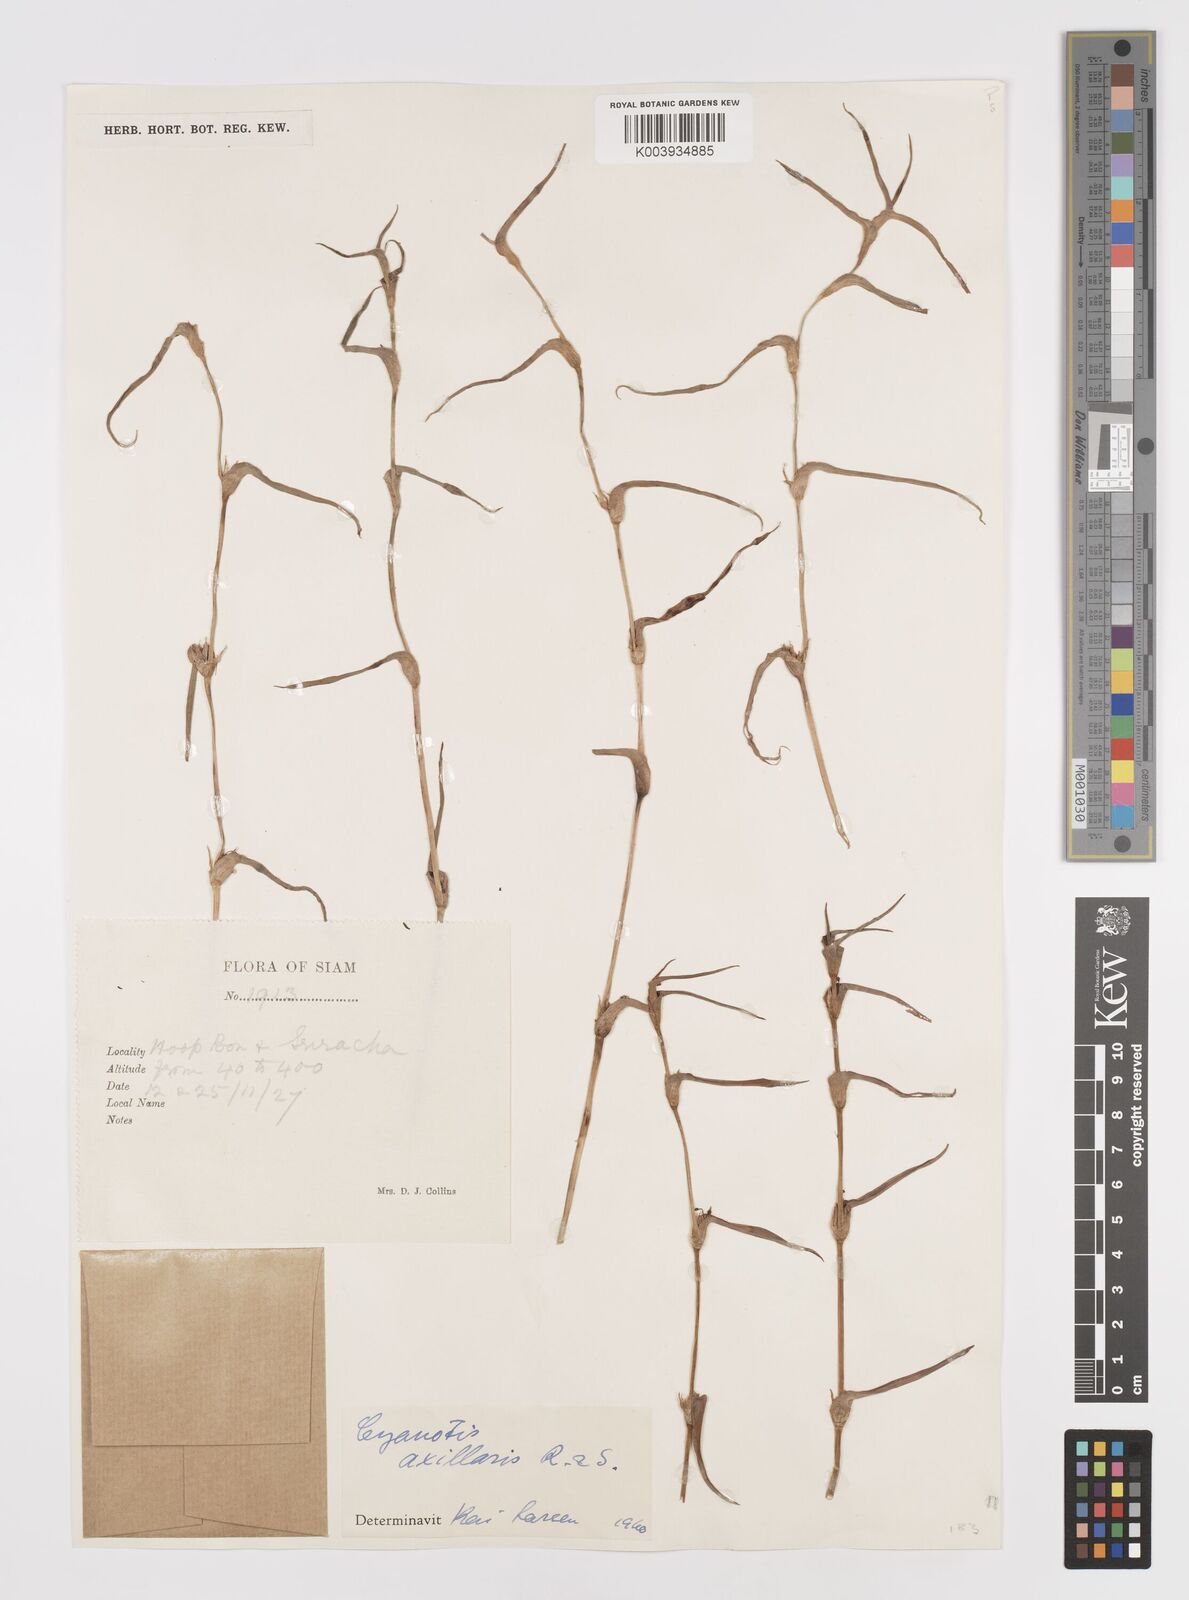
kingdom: Plantae
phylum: Tracheophyta
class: Liliopsida
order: Commelinales
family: Commelinaceae
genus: Cyanotis
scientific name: Cyanotis axillaris
